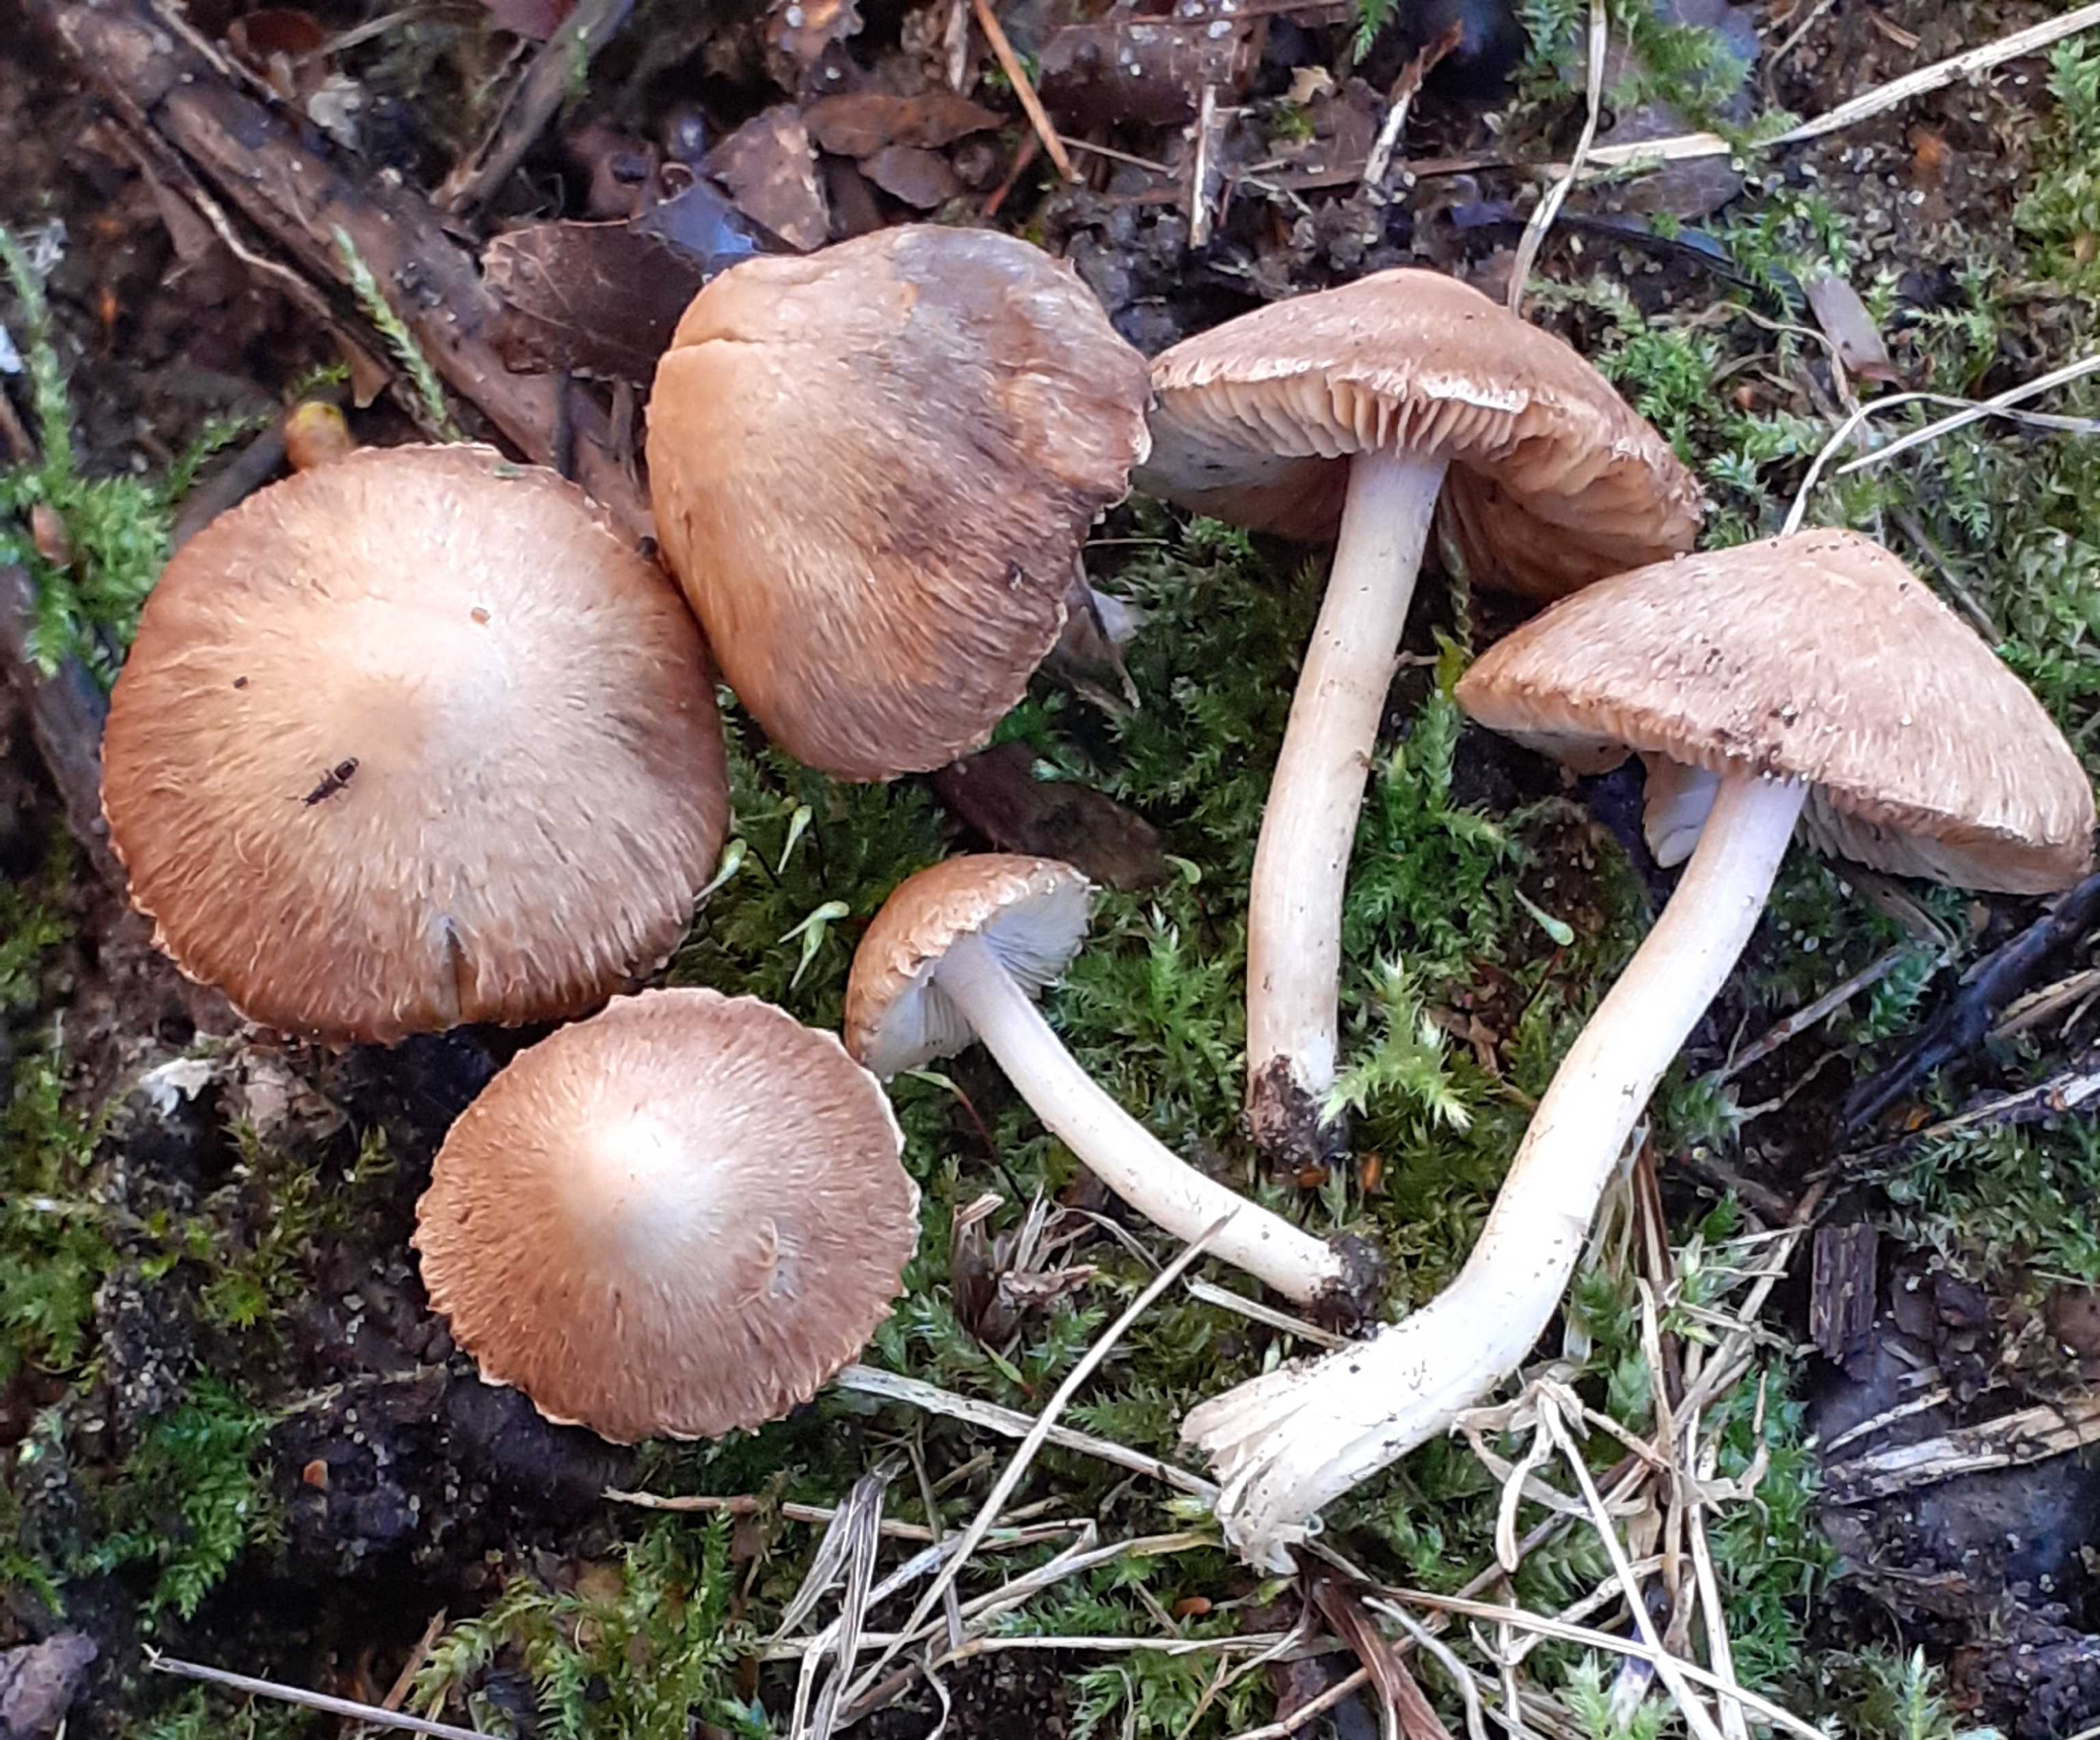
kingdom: Fungi
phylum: Basidiomycota
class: Agaricomycetes
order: Agaricales
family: Inocybaceae
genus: Inocybe
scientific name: Inocybe
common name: trævlhat
